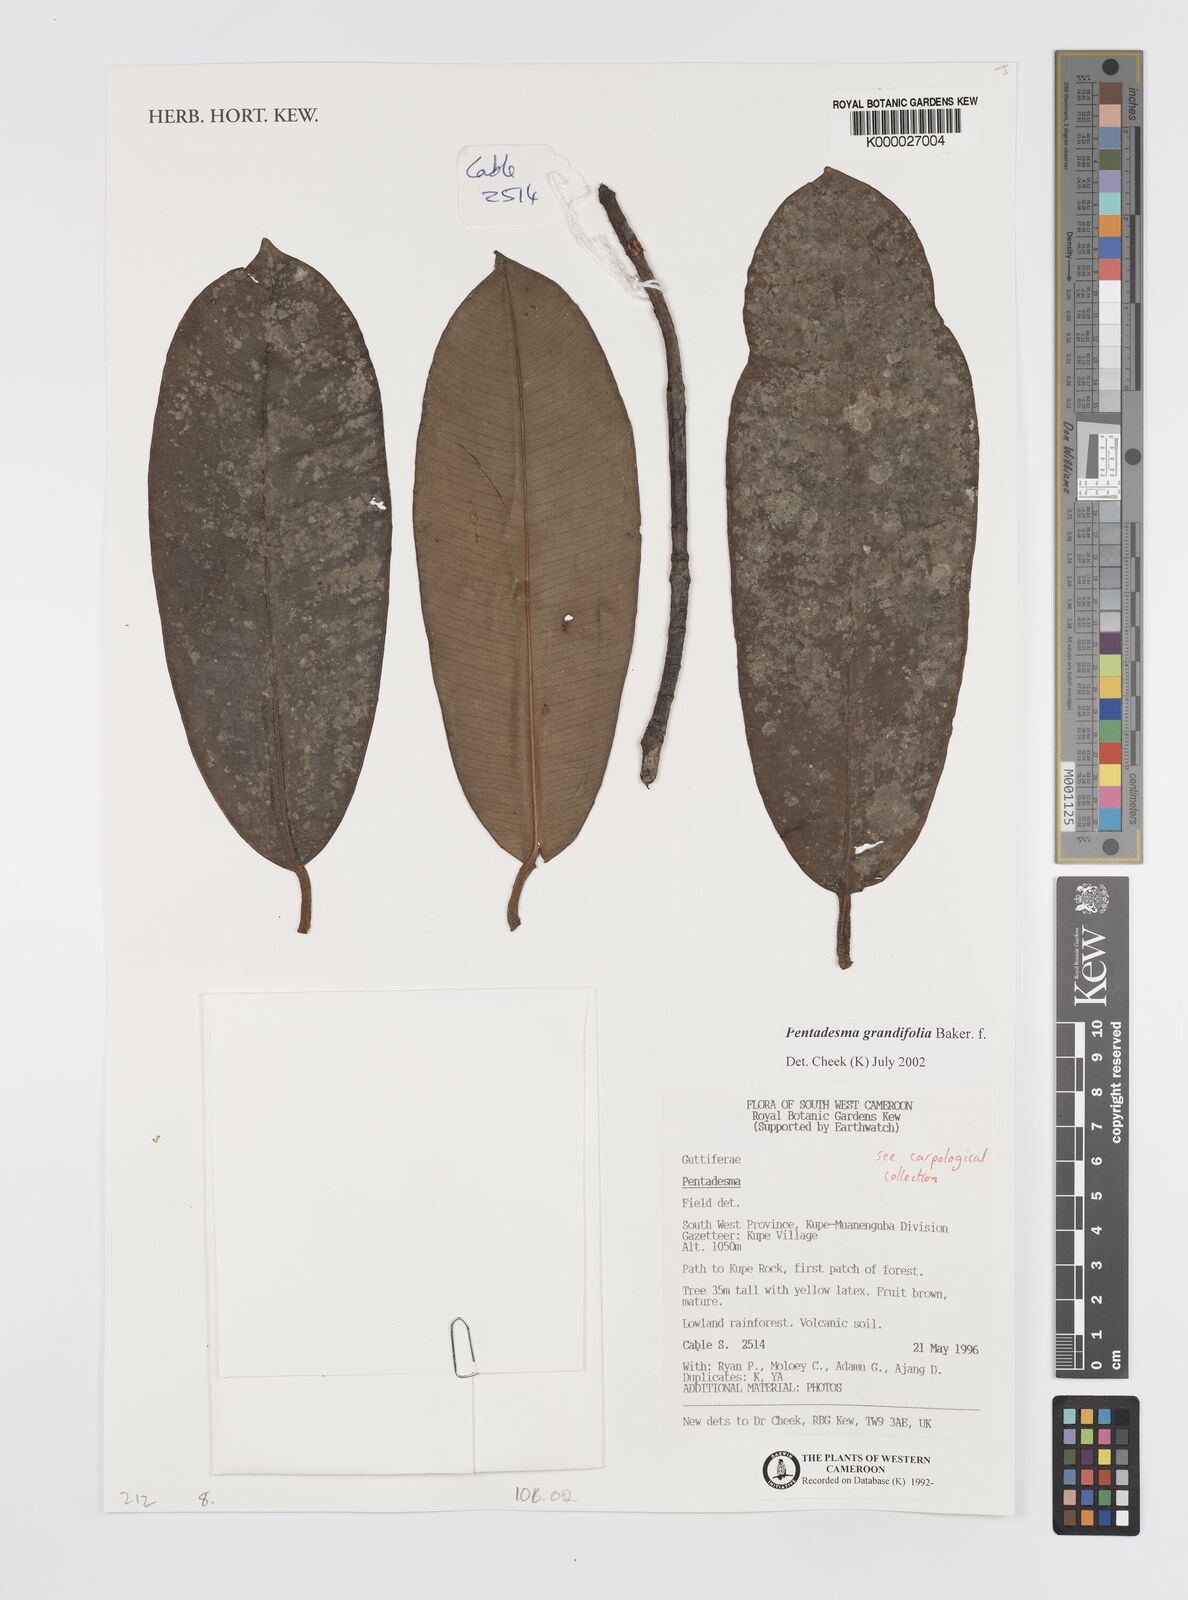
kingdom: Plantae
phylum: Tracheophyta
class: Magnoliopsida
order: Malpighiales
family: Clusiaceae
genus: Pentadesma
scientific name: Pentadesma grandifolia
